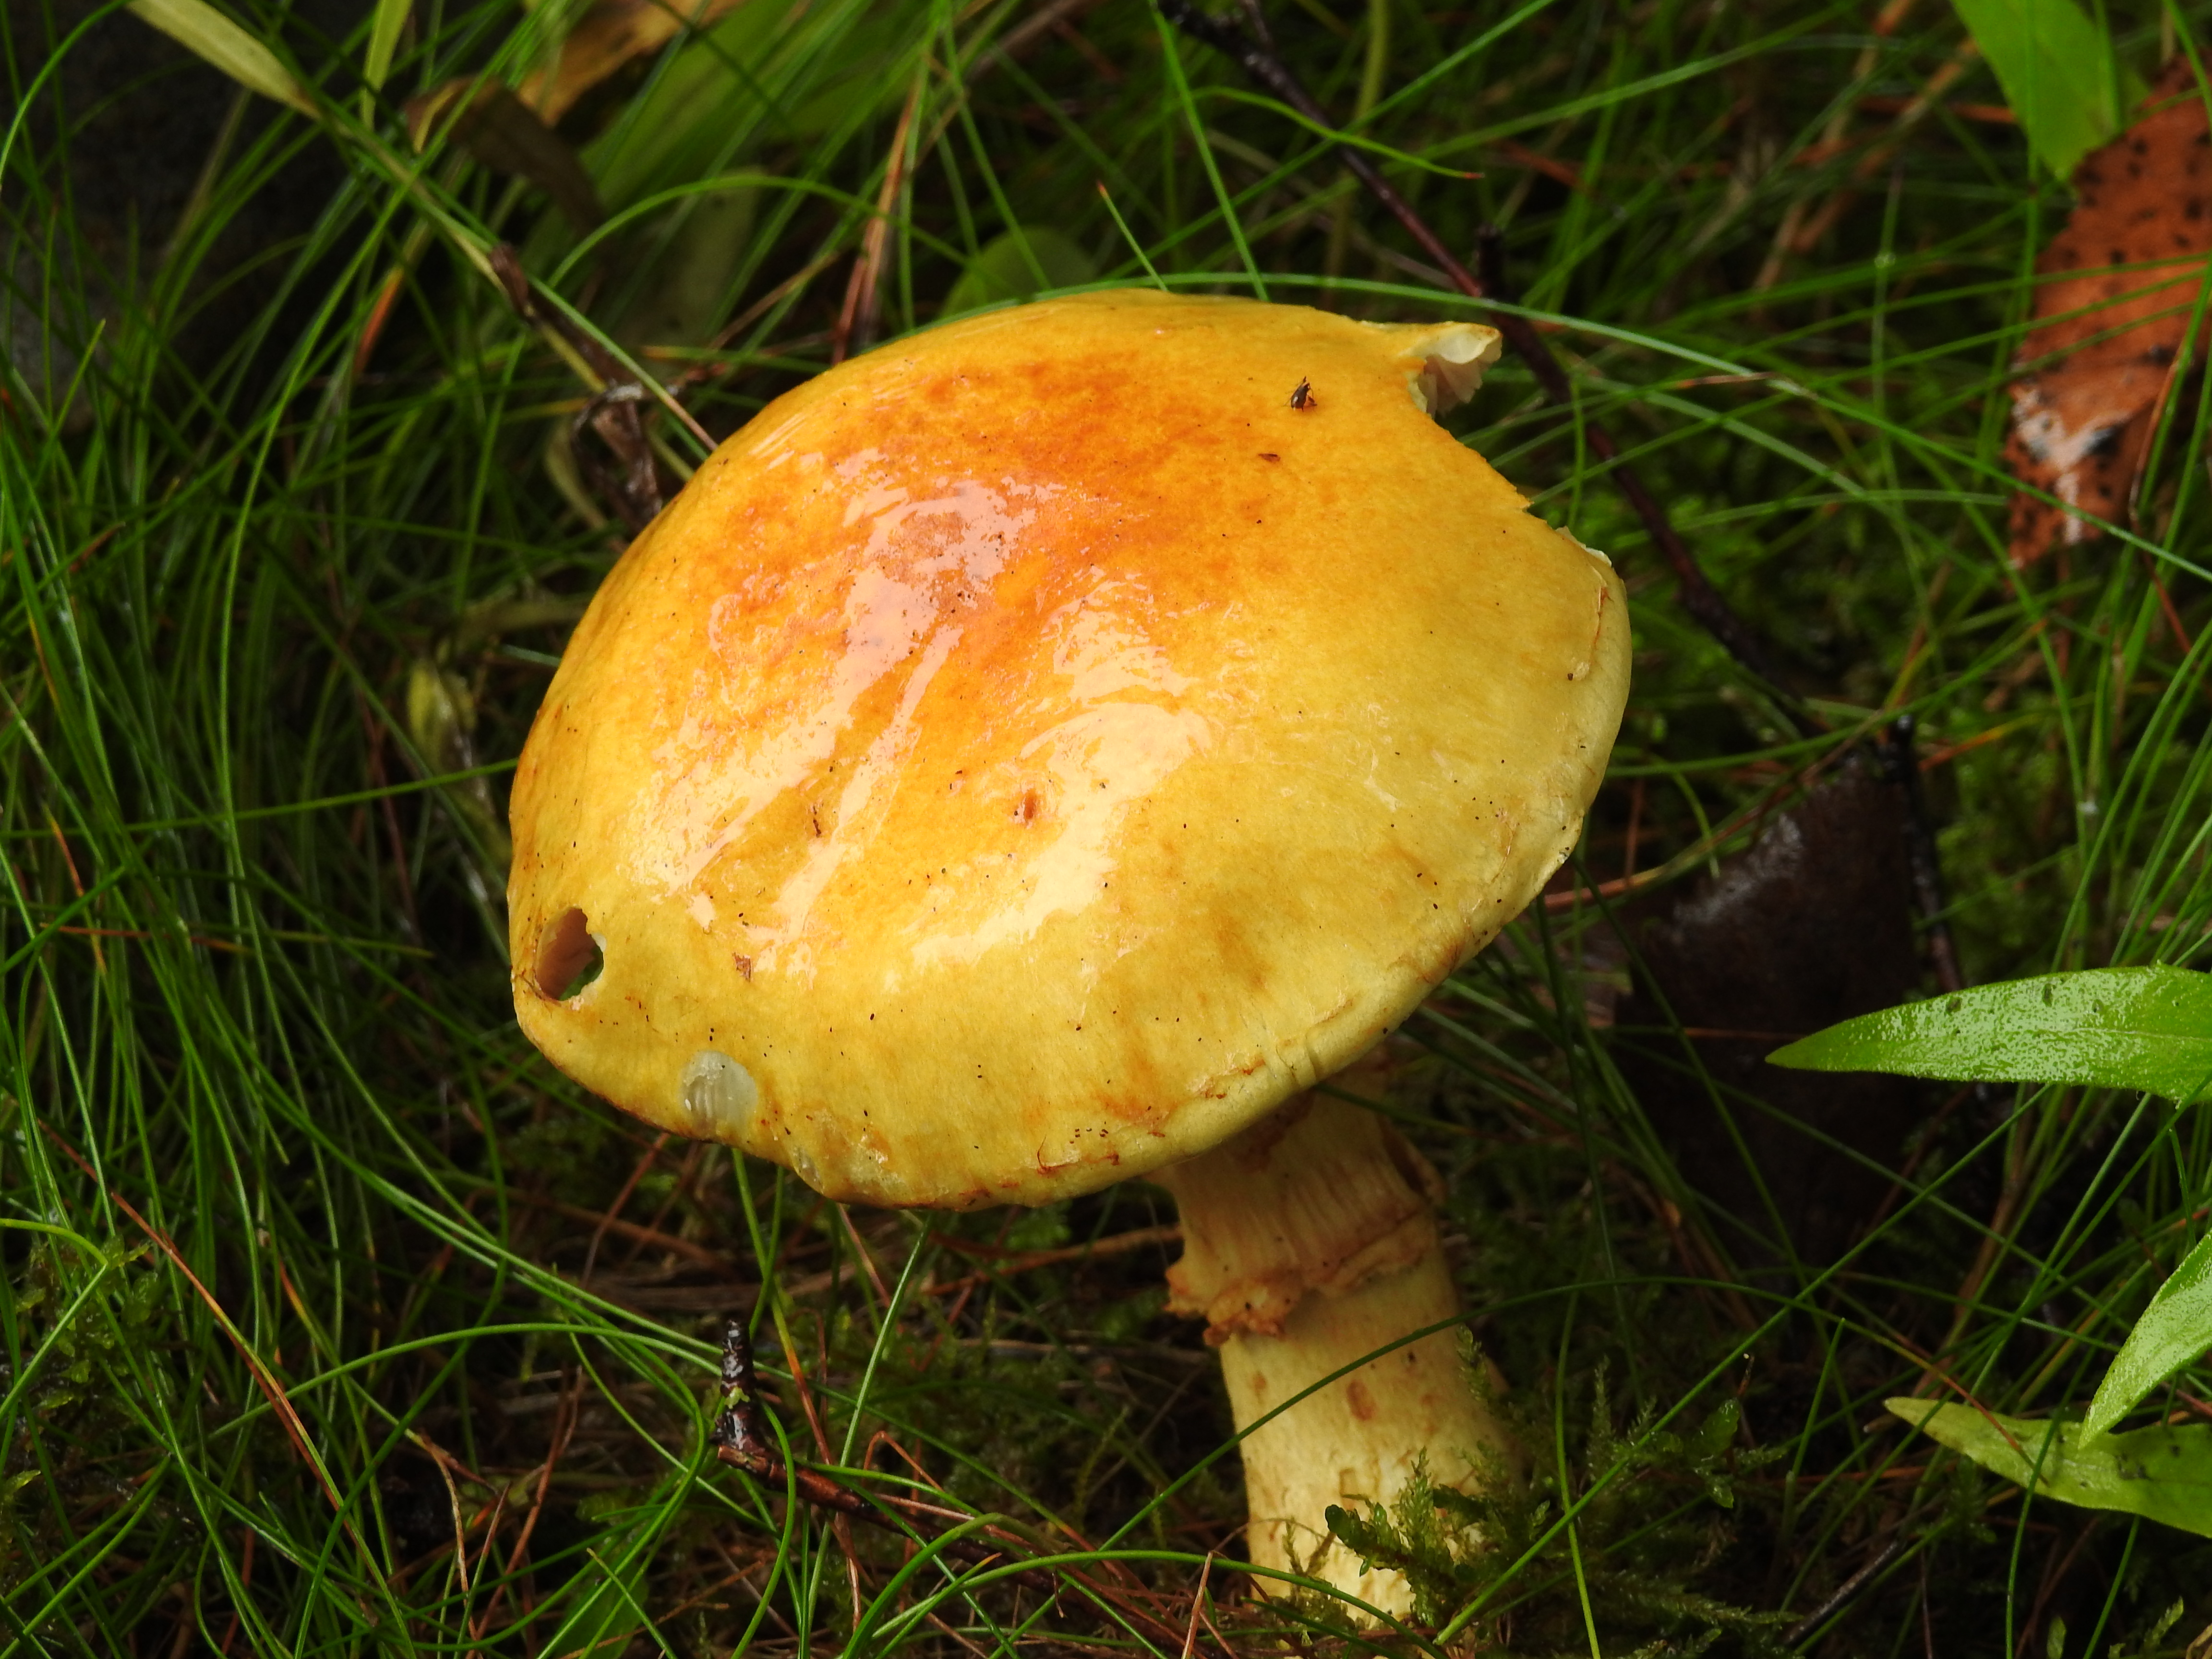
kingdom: Fungi
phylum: Basidiomycota
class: Agaricomycetes
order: Agaricales
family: Cortinariaceae
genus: Phlegmacium
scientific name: Phlegmacium triumphans
